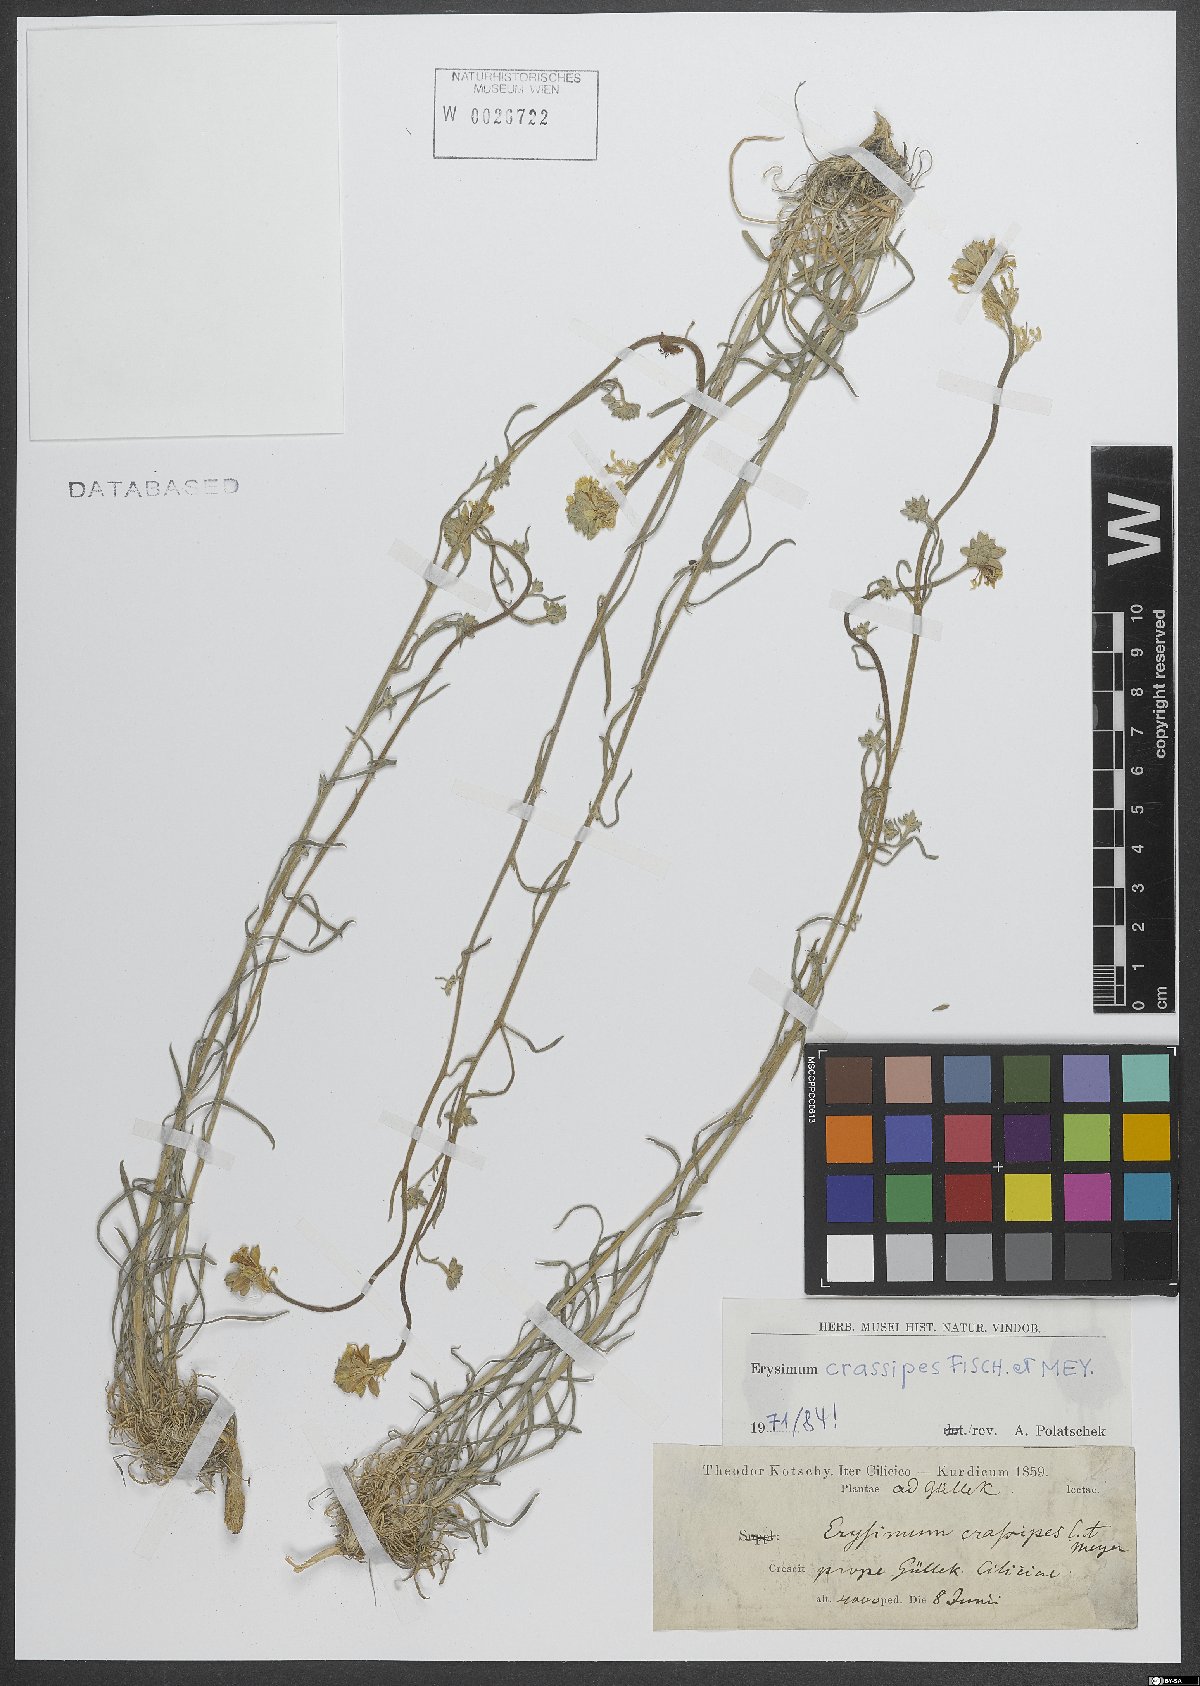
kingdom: Plantae
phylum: Tracheophyta
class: Magnoliopsida
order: Brassicales
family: Brassicaceae
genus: Erysimum
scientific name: Erysimum crassipes
